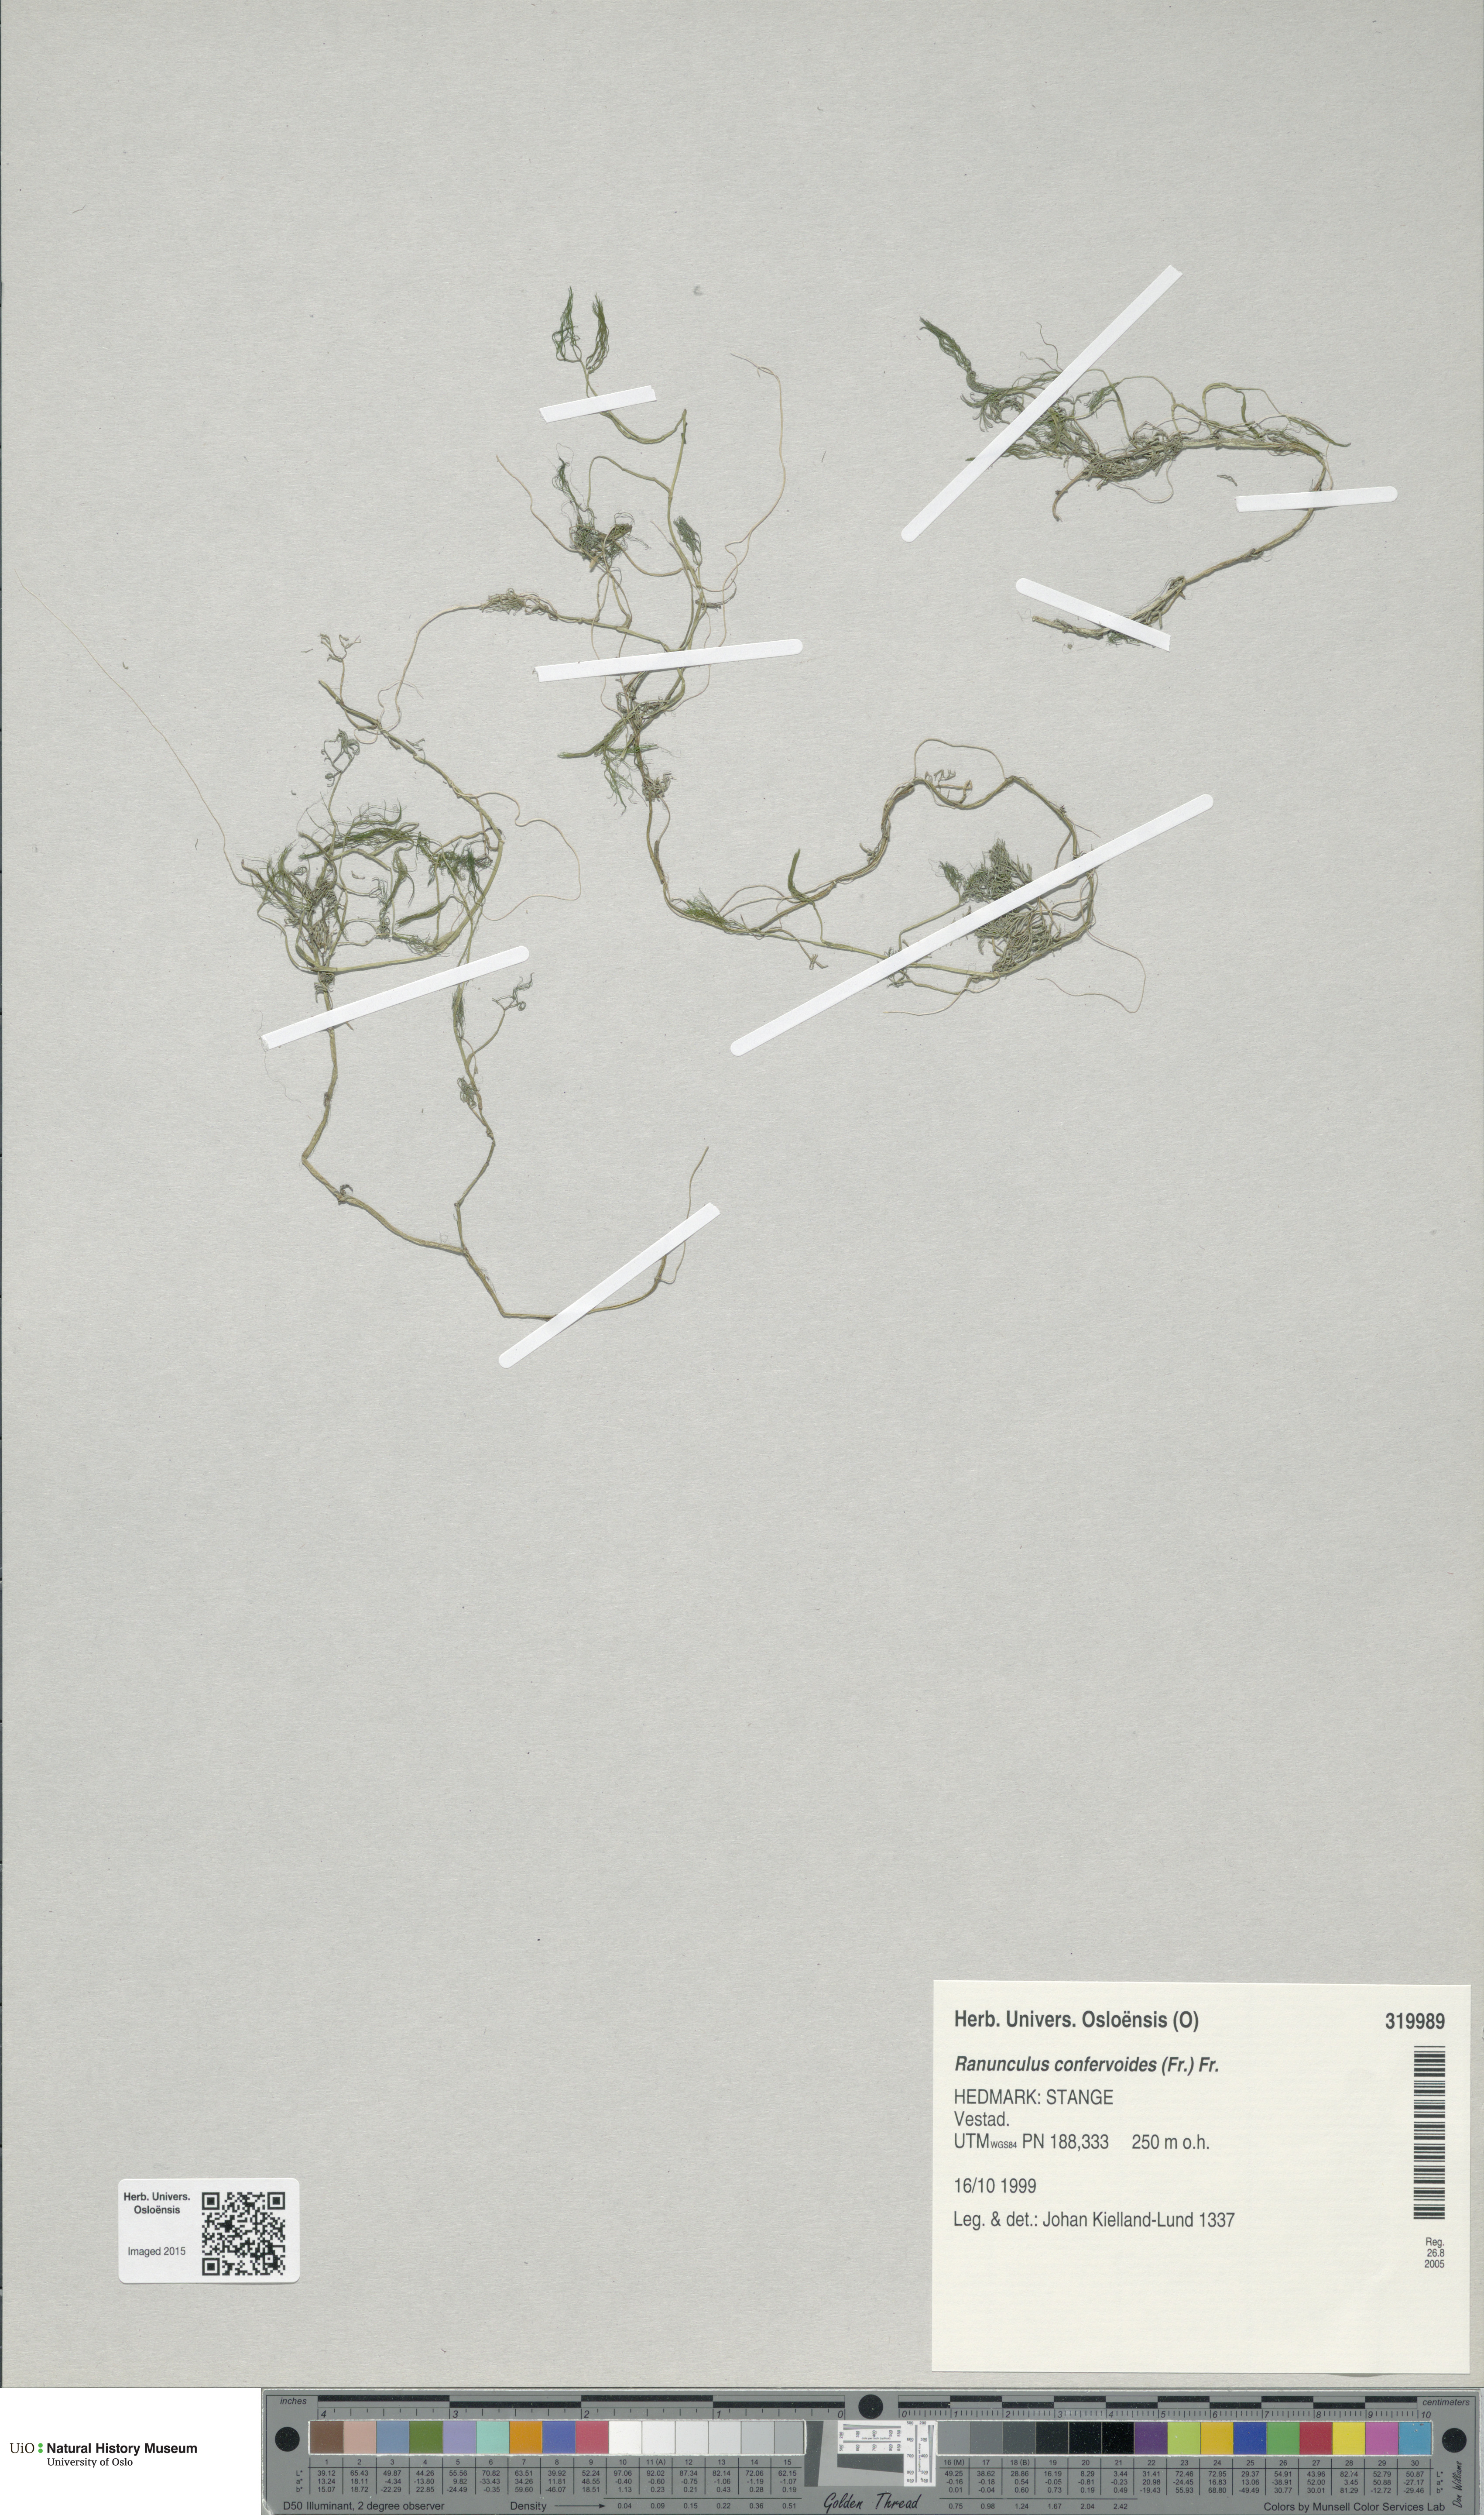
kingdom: Plantae
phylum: Tracheophyta
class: Magnoliopsida
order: Ranunculales
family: Ranunculaceae
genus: Ranunculus
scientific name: Ranunculus confervoides
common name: Delicate buttercup
